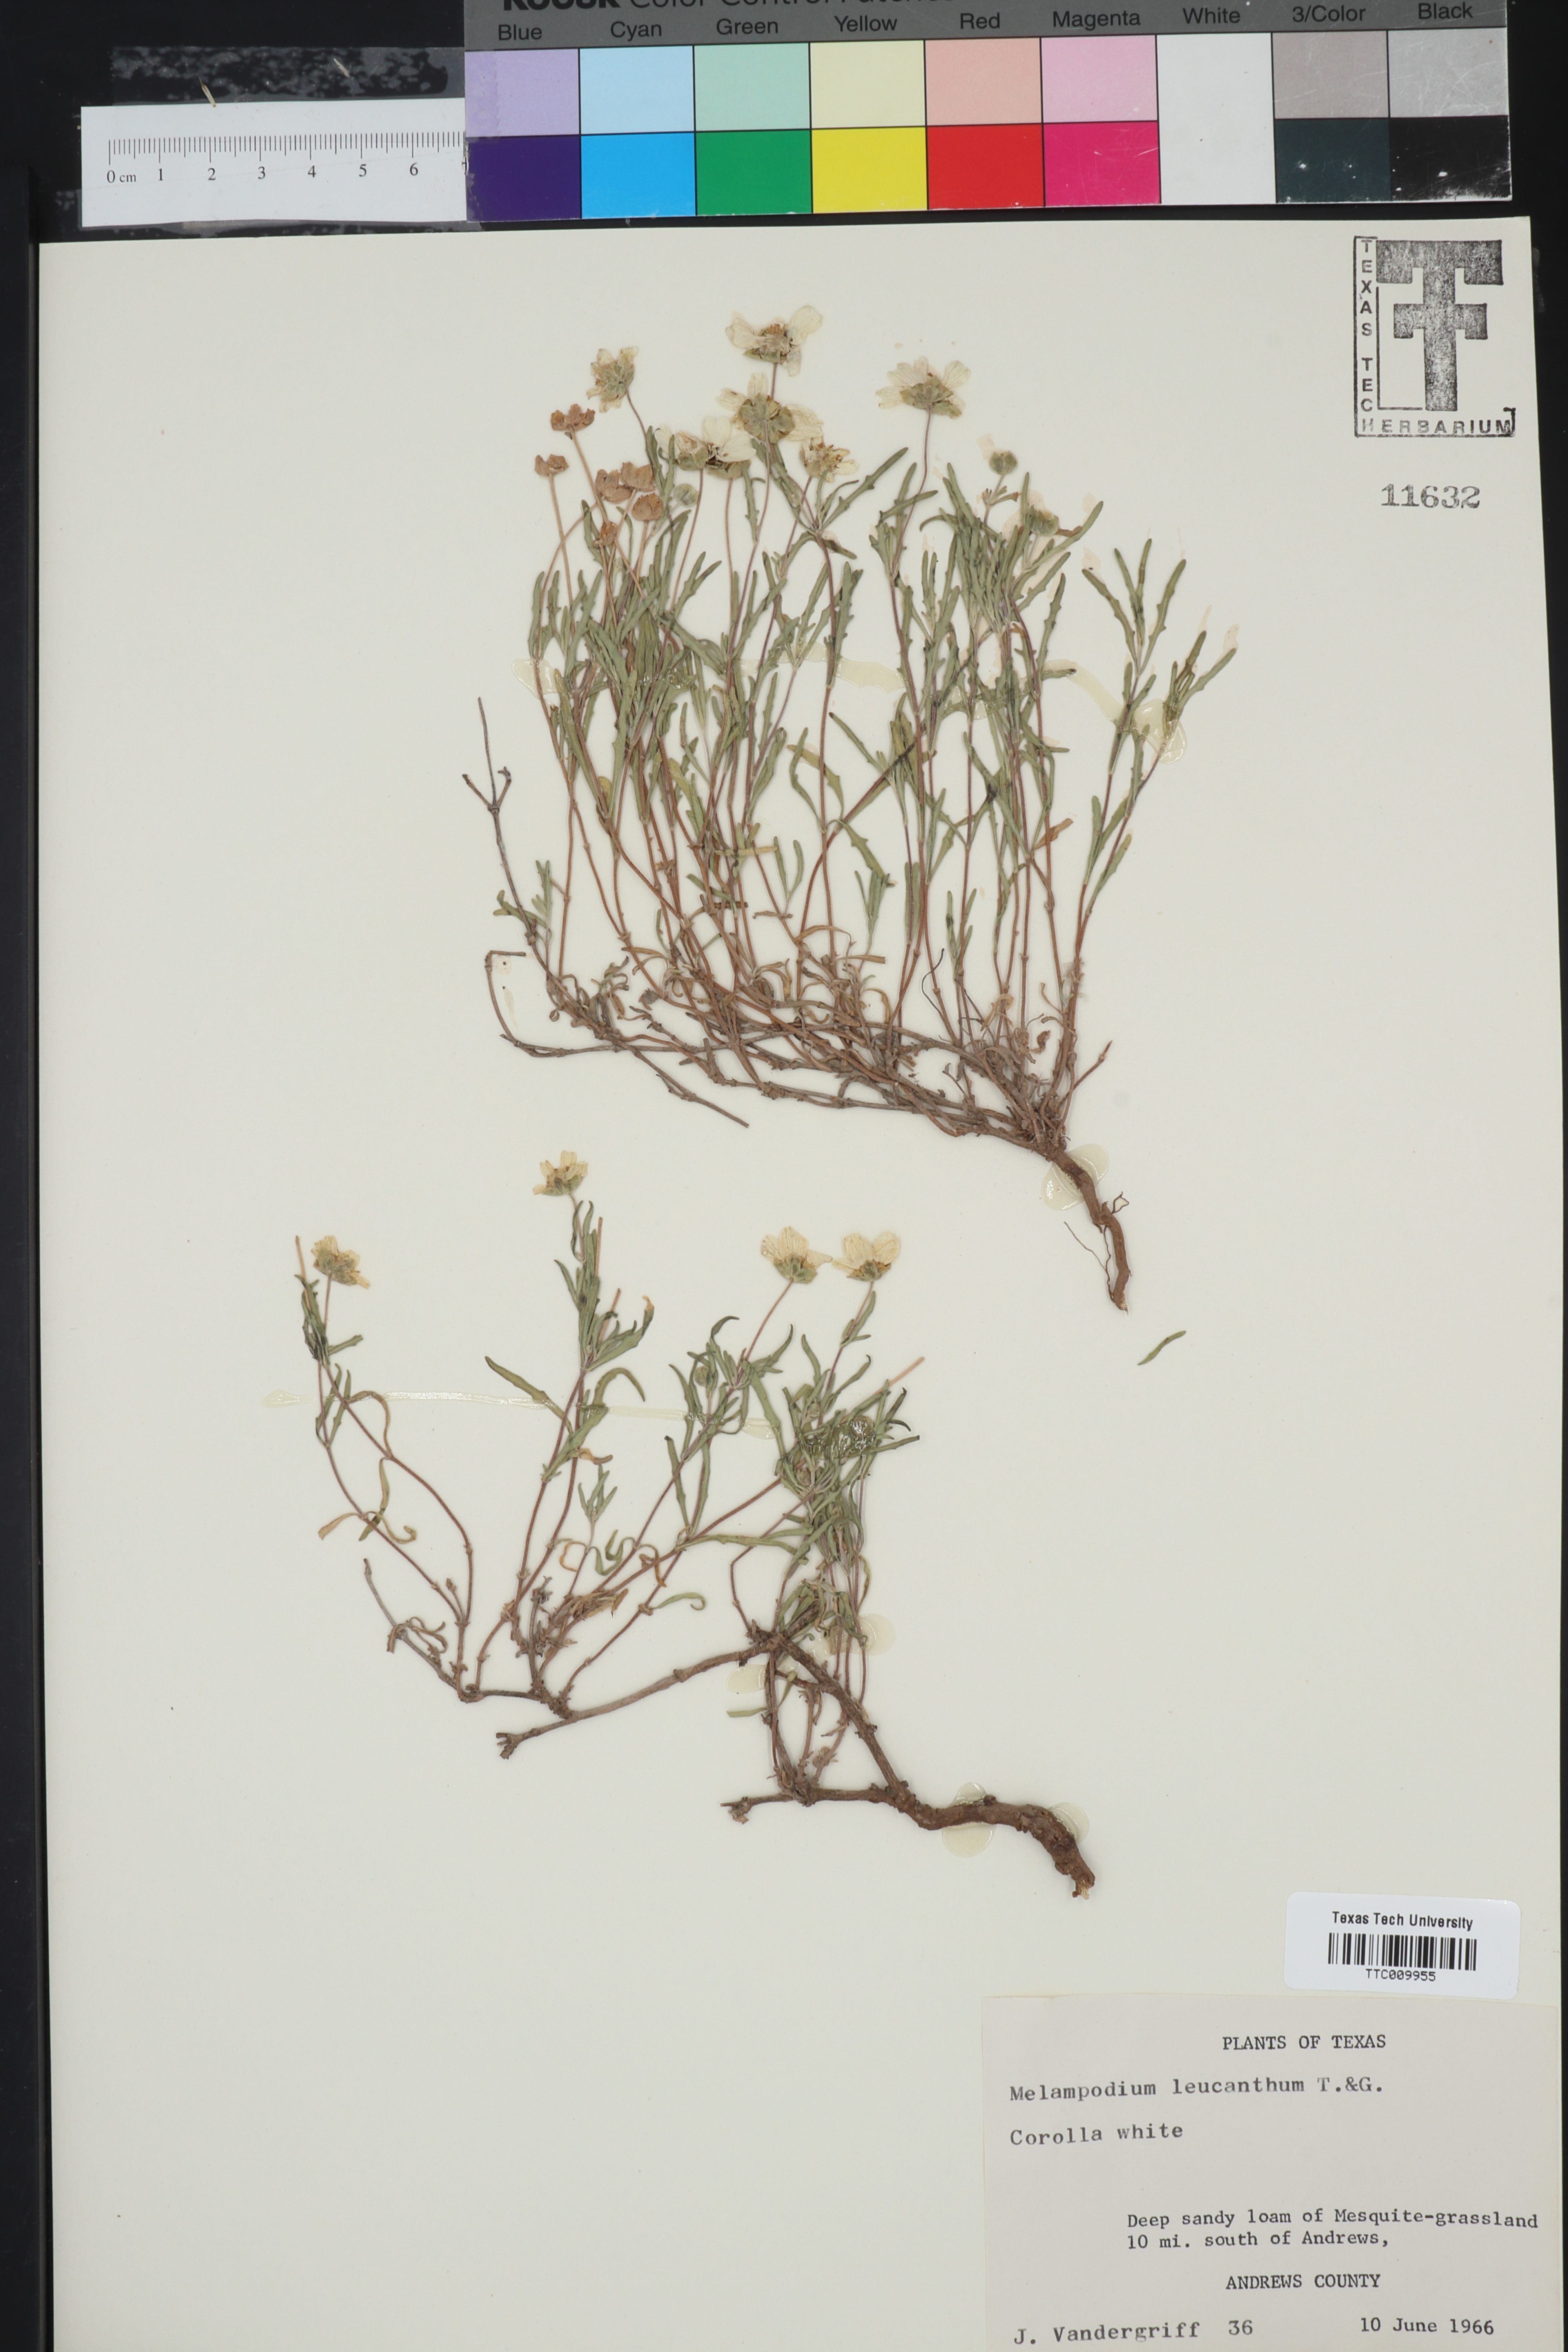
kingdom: Plantae
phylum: Tracheophyta
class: Magnoliopsida
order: Asterales
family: Asteraceae
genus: Melampodium
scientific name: Melampodium leucanthum
